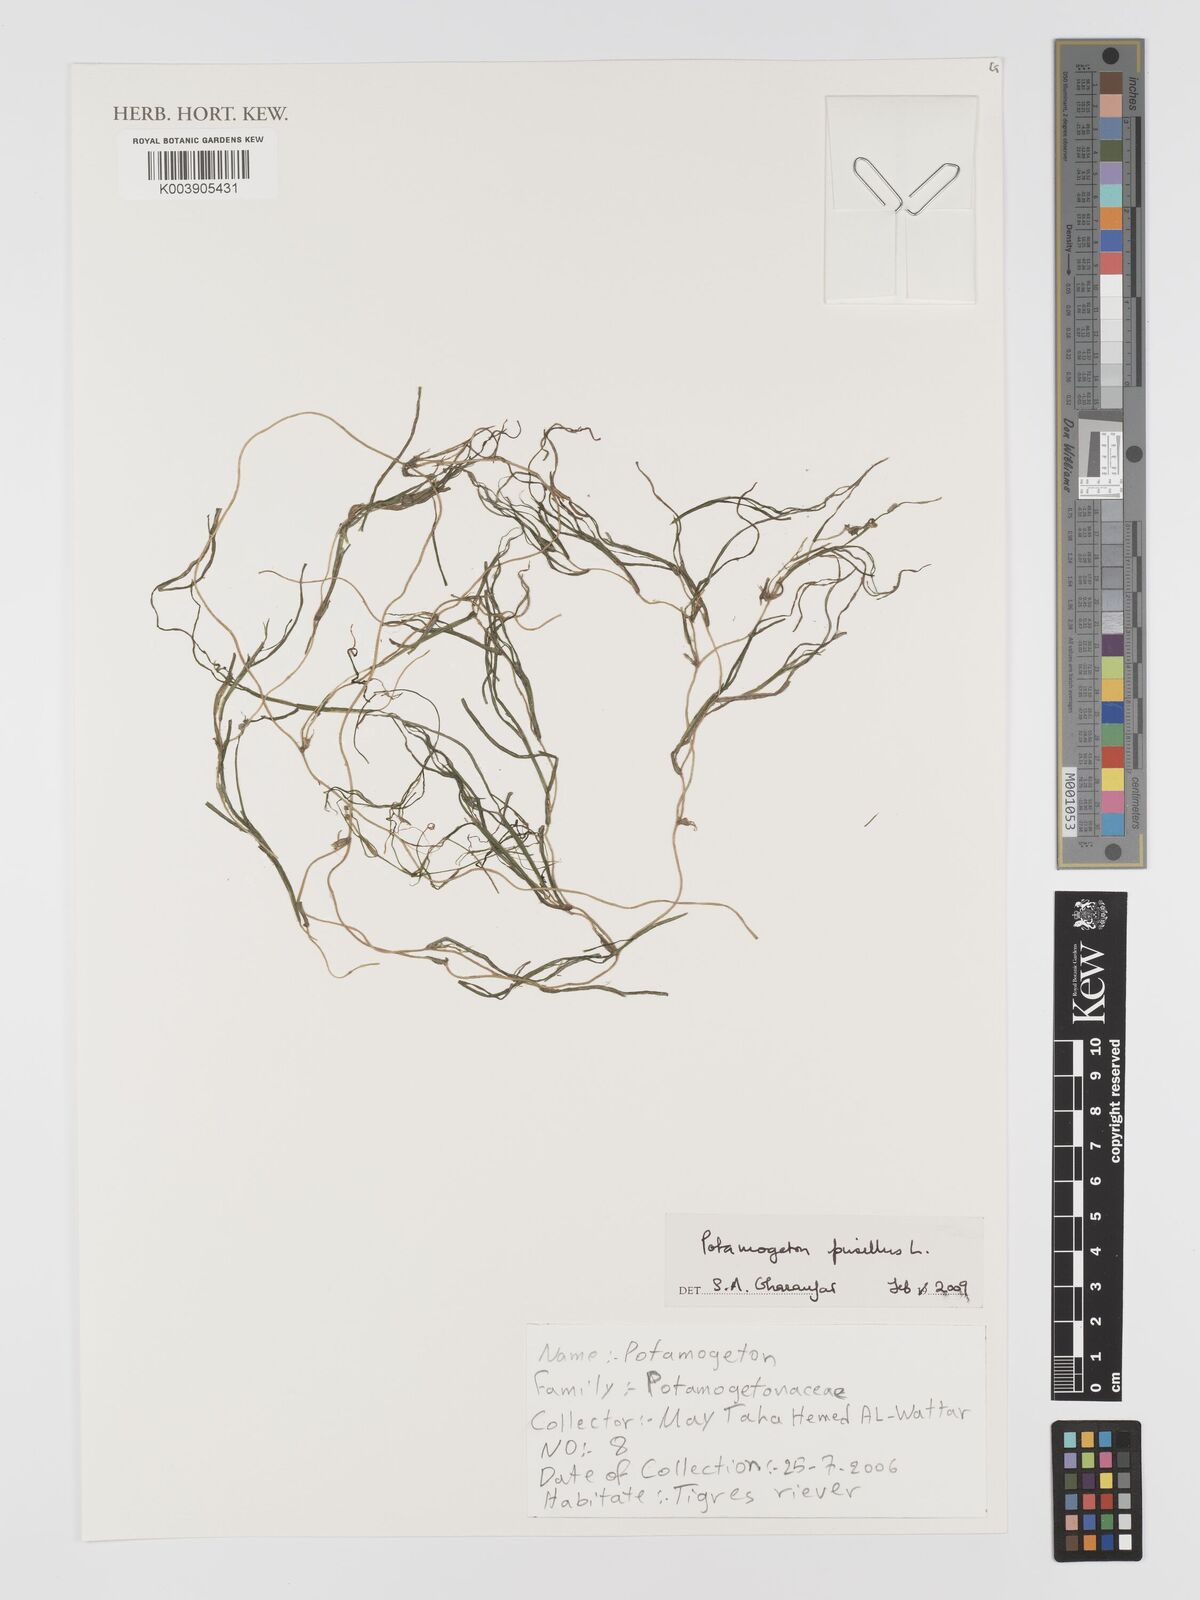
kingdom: Plantae
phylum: Tracheophyta
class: Liliopsida
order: Alismatales
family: Potamogetonaceae
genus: Potamogeton
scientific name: Potamogeton pusillus
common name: Lesser pondweed
